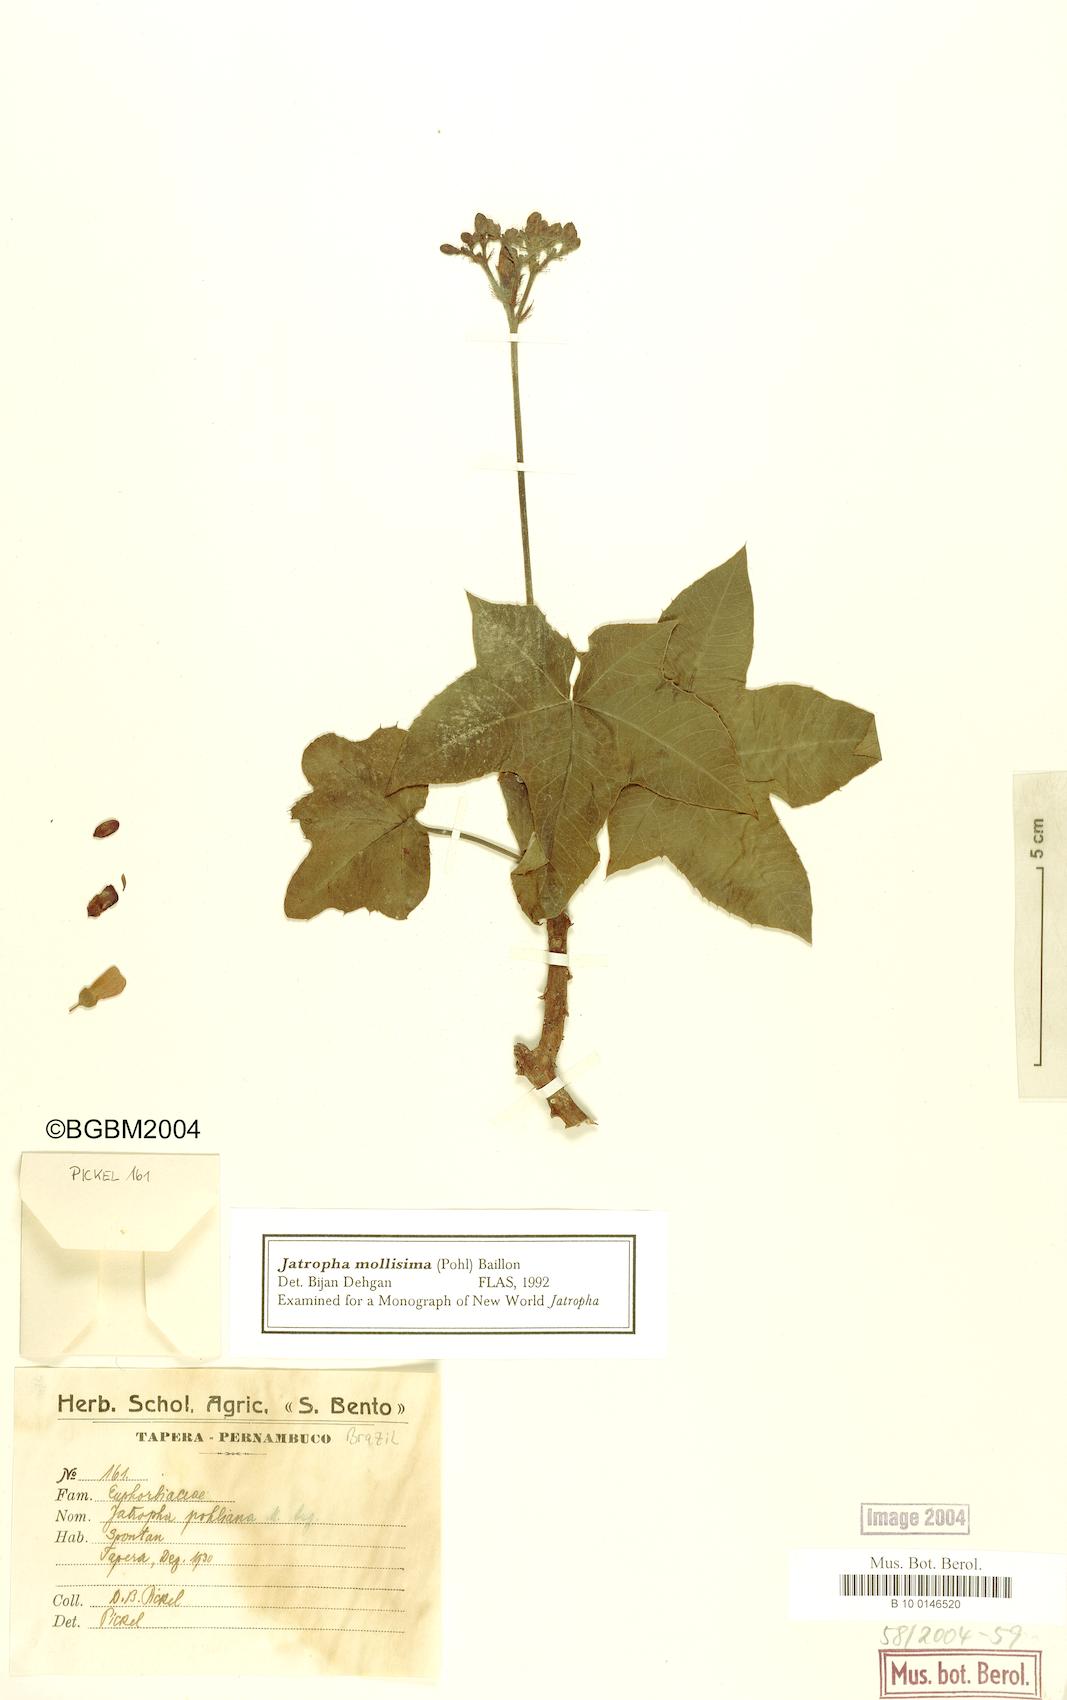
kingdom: Plantae
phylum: Tracheophyta
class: Magnoliopsida
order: Malpighiales
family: Euphorbiaceae
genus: Jatropha
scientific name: Jatropha mollissima
